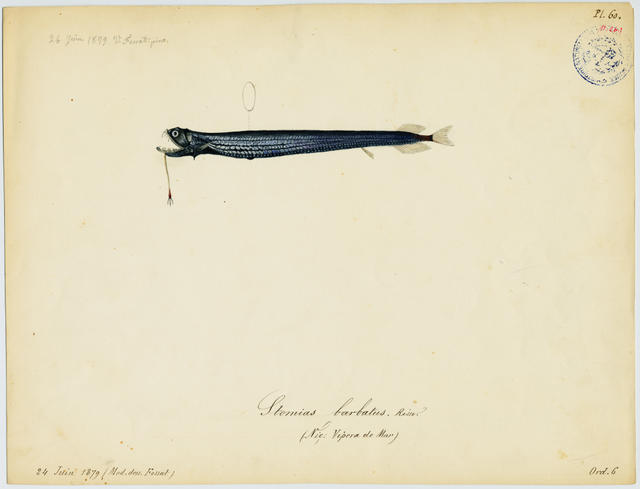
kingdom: Animalia
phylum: Chordata
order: Stomiiformes
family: Stomiidae
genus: Stomias
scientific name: Stomias boa
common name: Boa dragonfish
